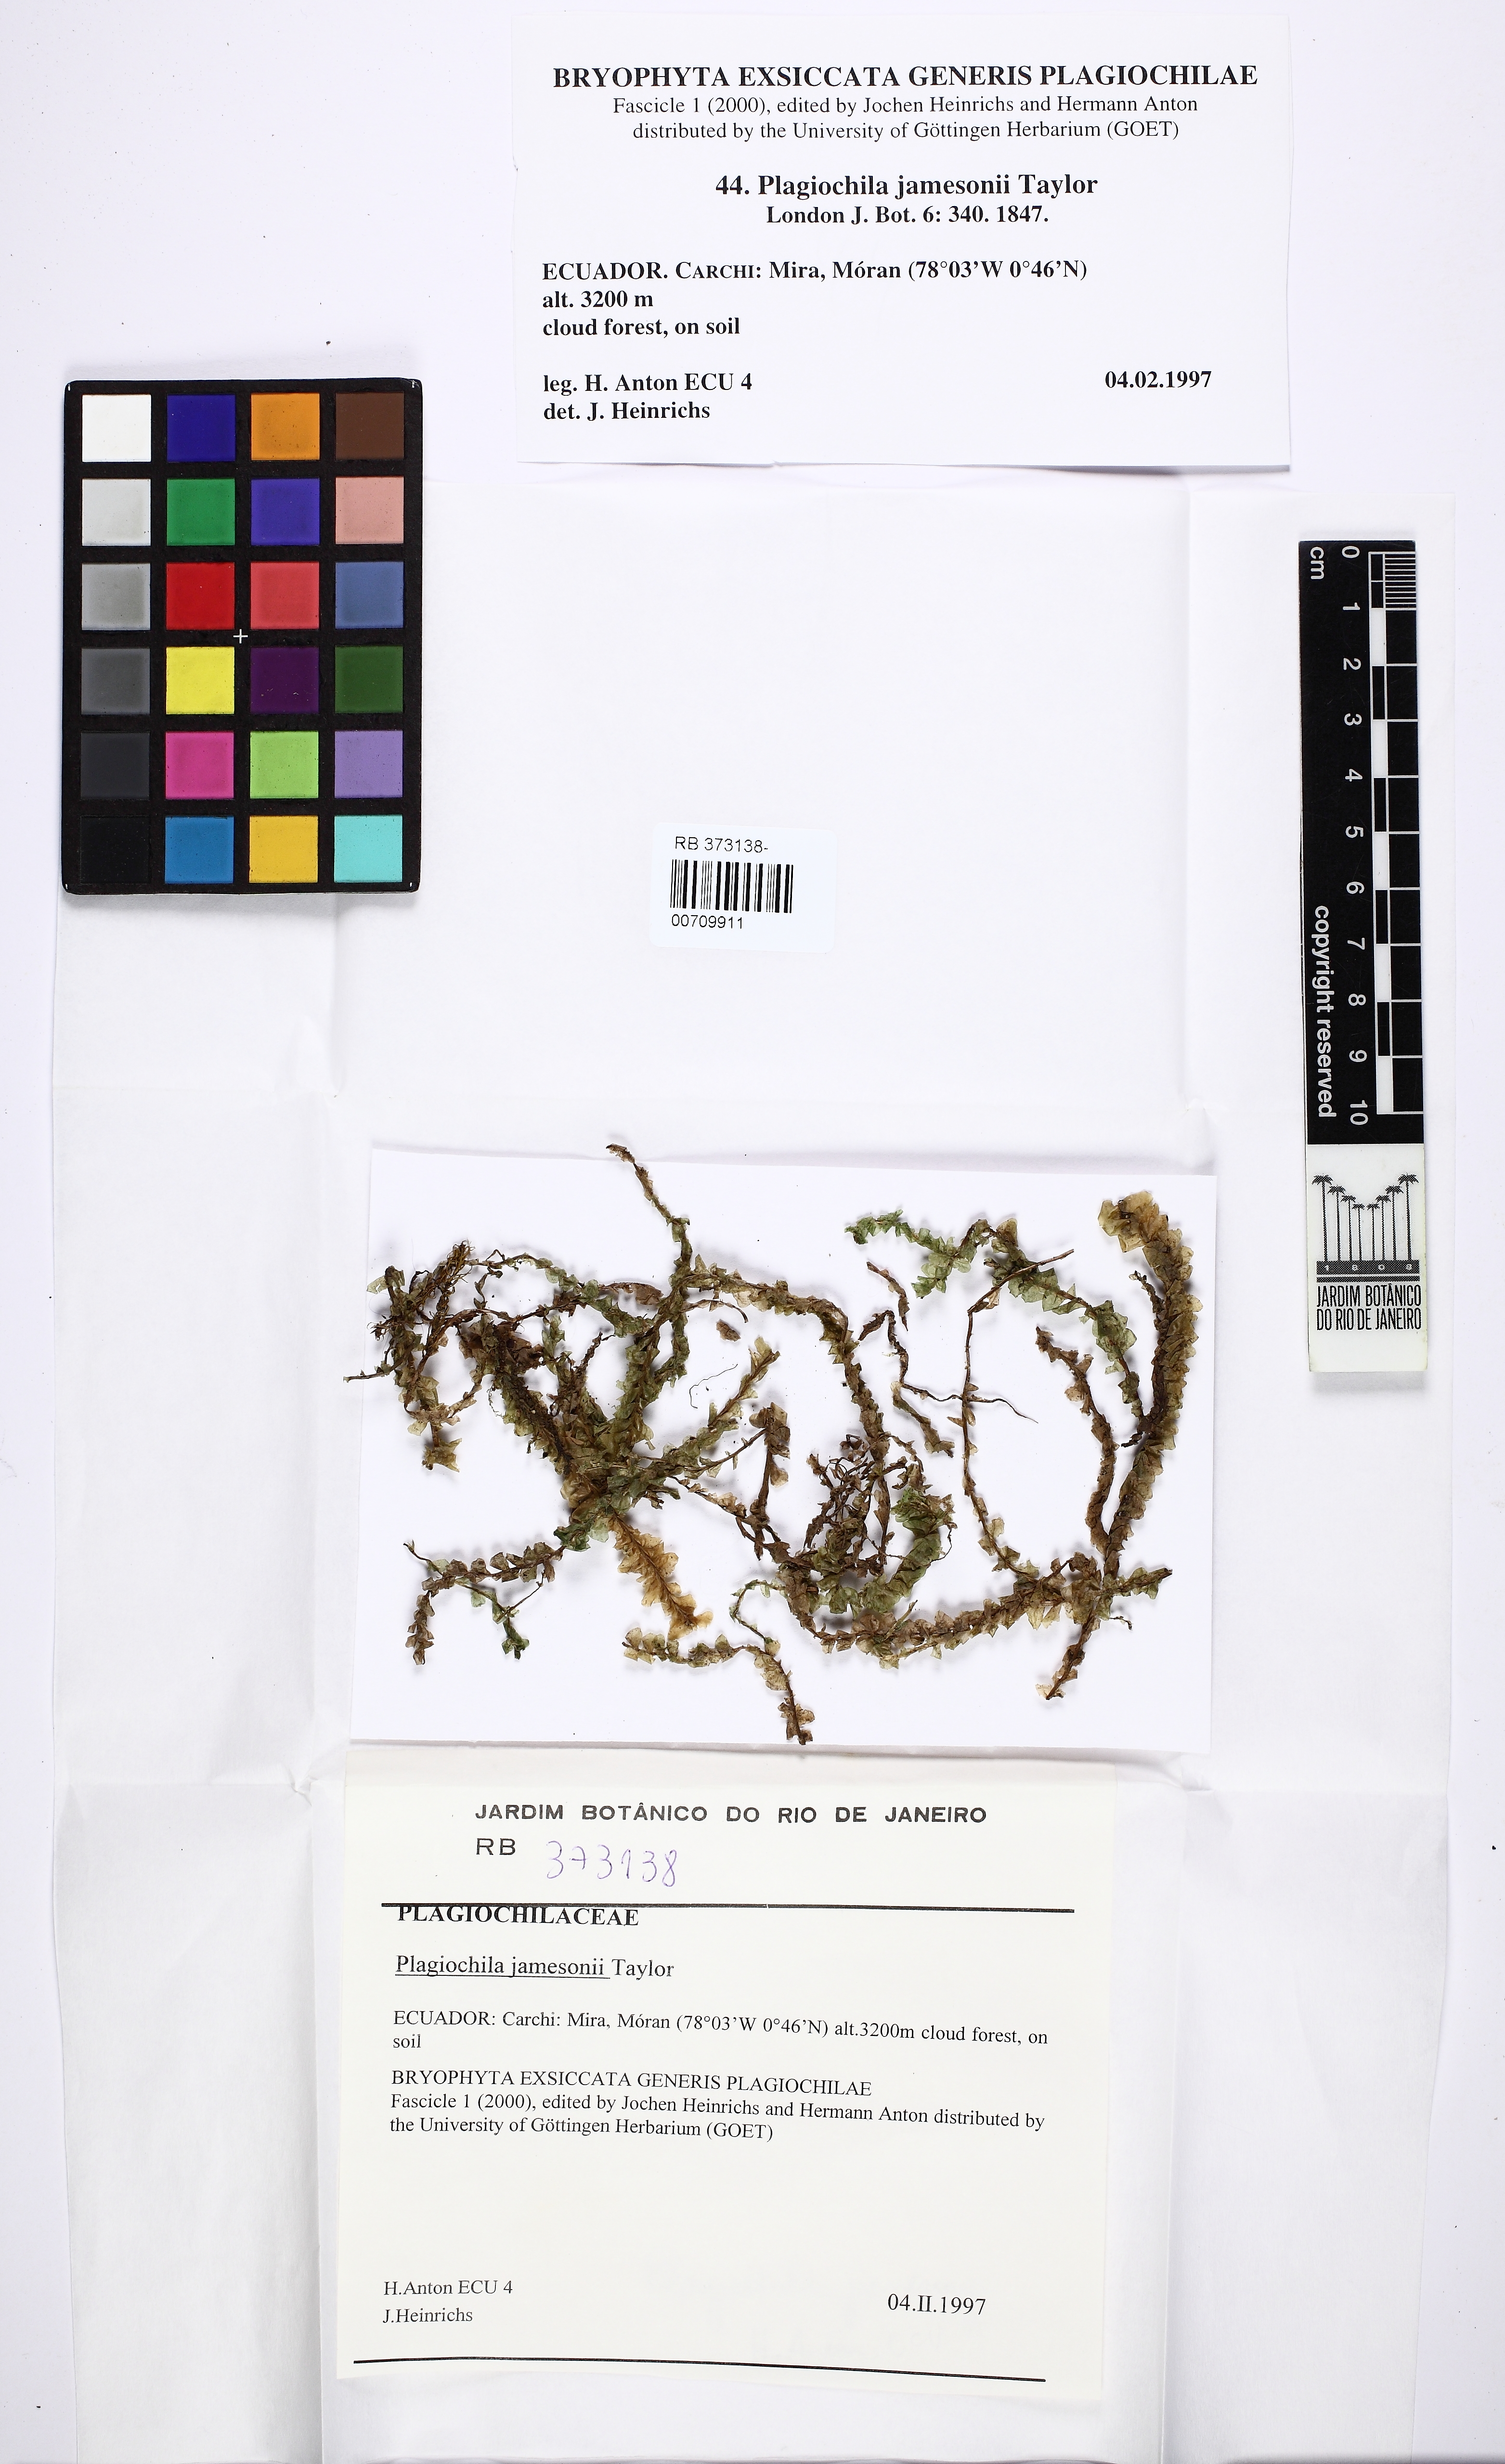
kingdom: Plantae
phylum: Marchantiophyta
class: Jungermanniopsida
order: Jungermanniales
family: Plagiochilaceae
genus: Plagiochila
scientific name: Plagiochila ensiformis
